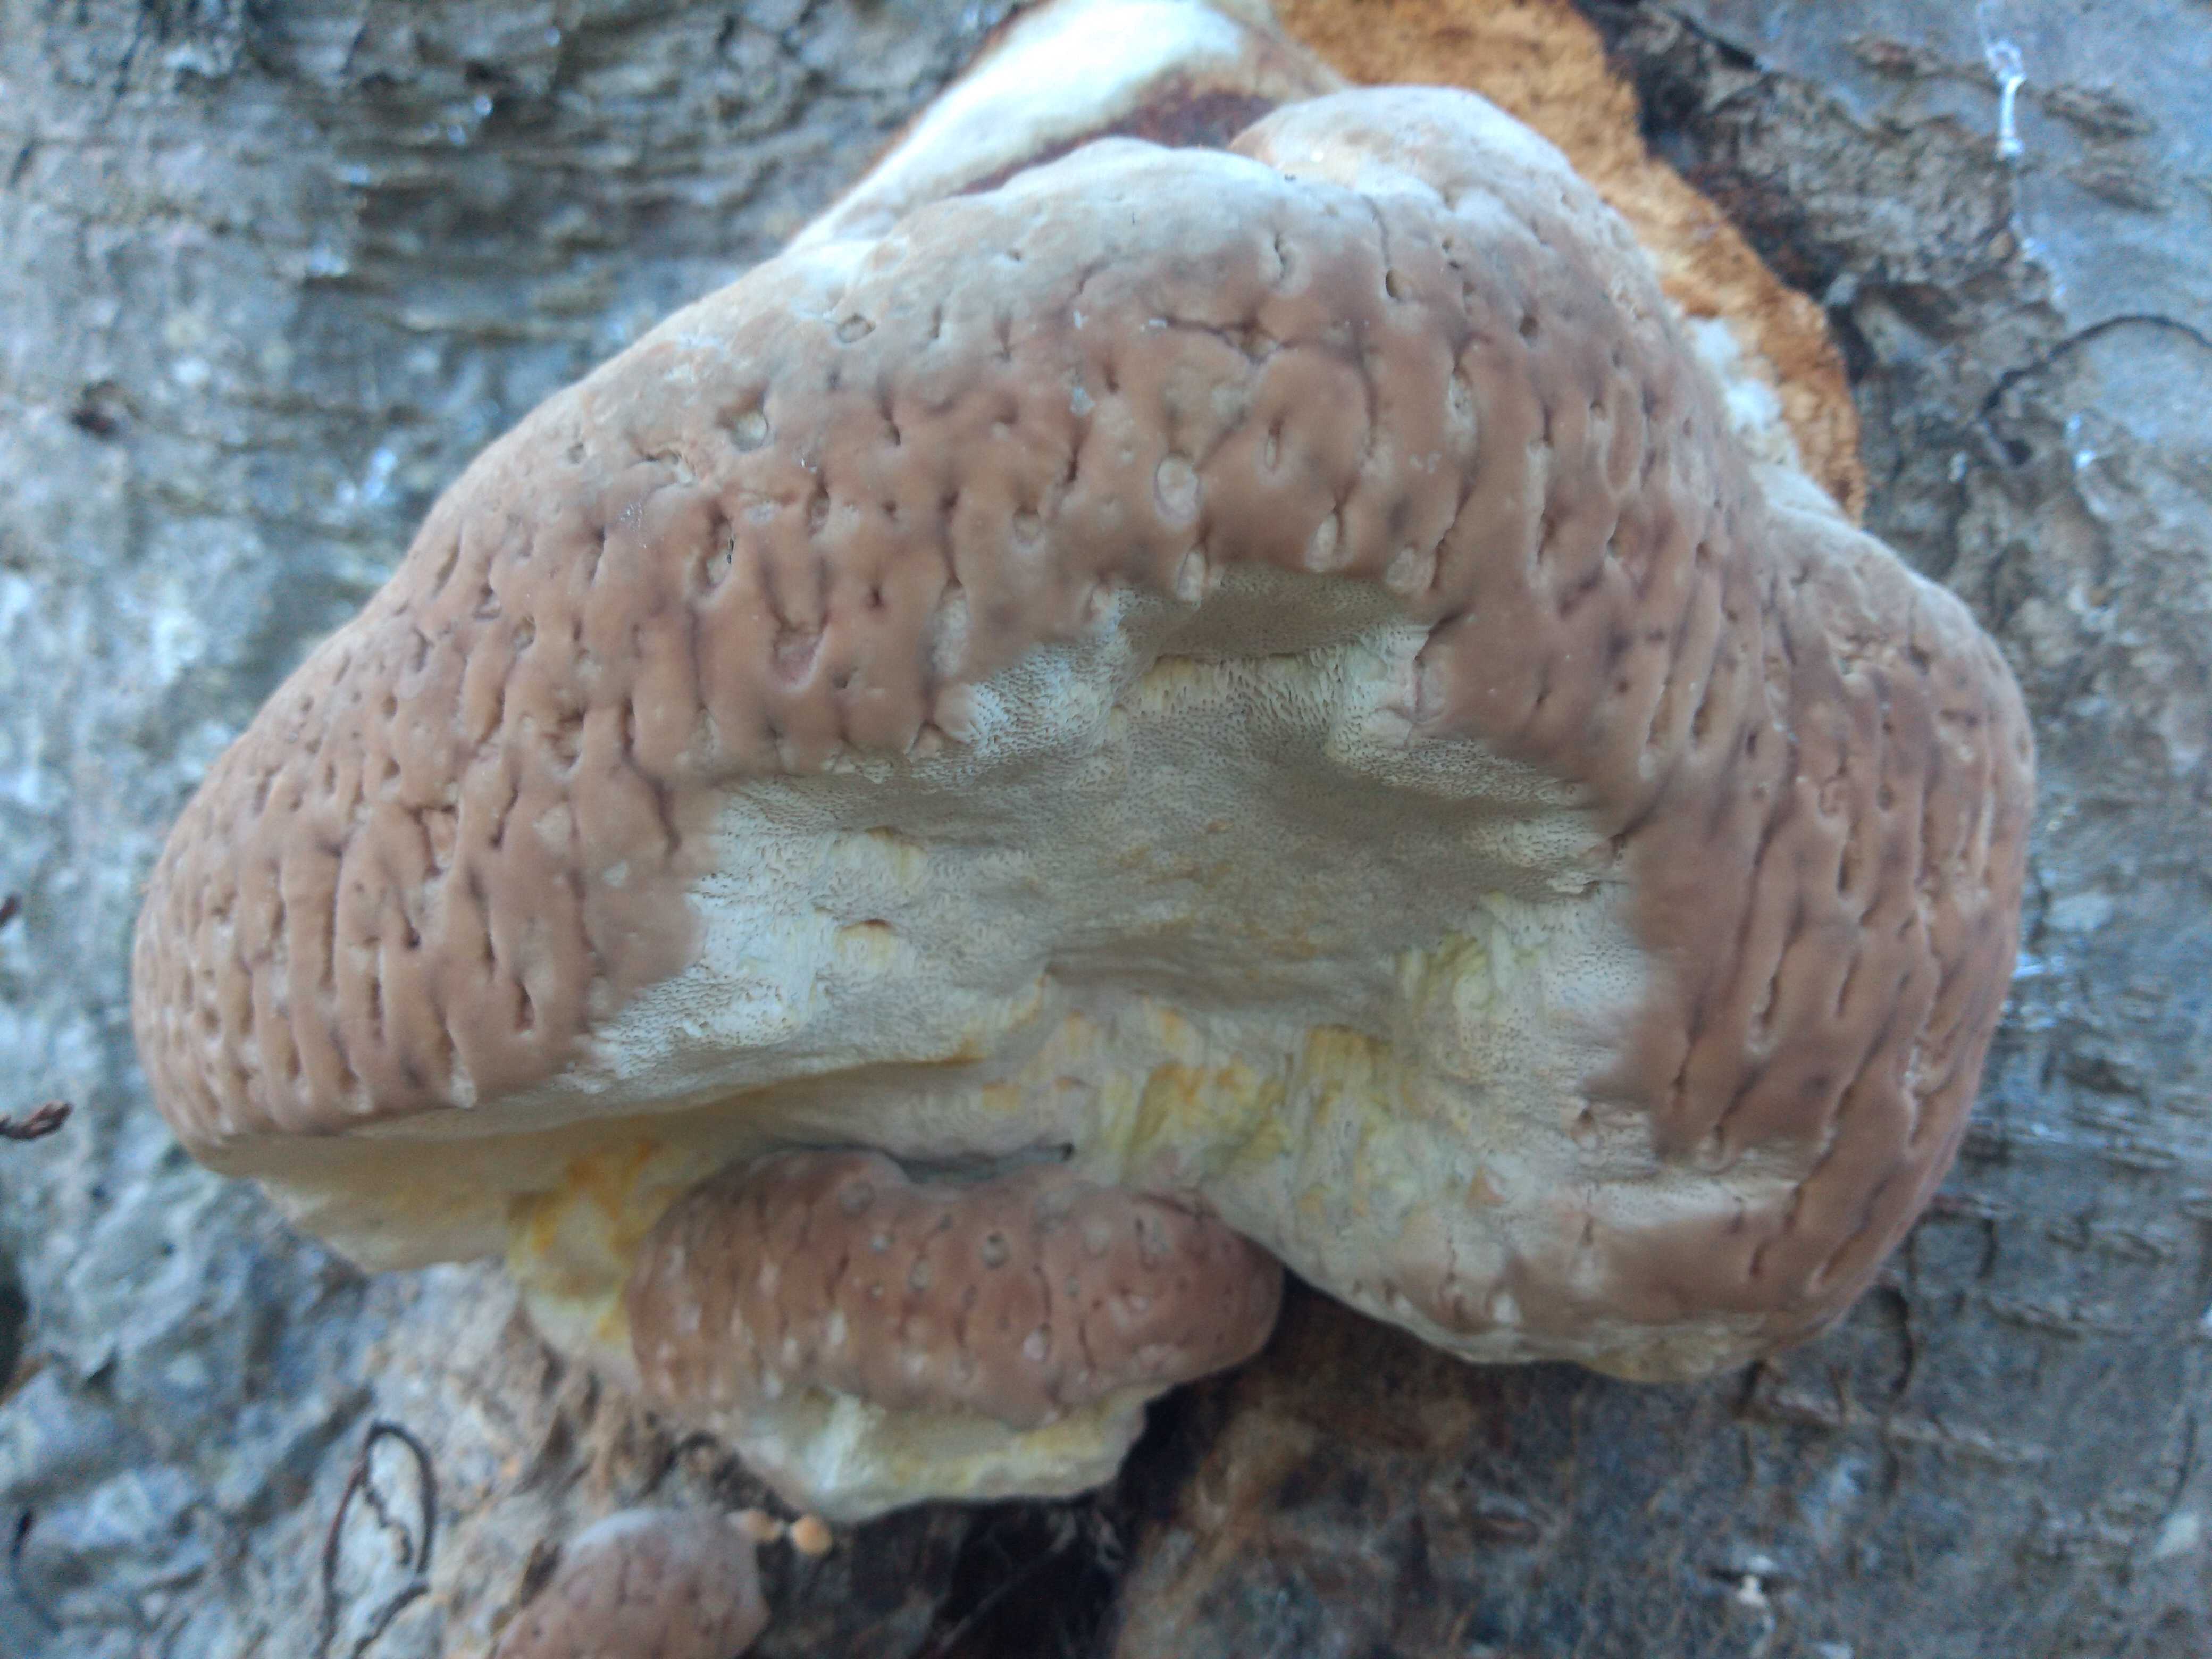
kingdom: Fungi
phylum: Basidiomycota
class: Agaricomycetes
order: Polyporales
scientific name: Polyporales
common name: poresvampordenen
